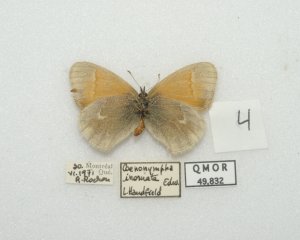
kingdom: Animalia
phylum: Arthropoda
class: Insecta
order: Lepidoptera
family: Nymphalidae
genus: Coenonympha
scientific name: Coenonympha tullia
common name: Large Heath
